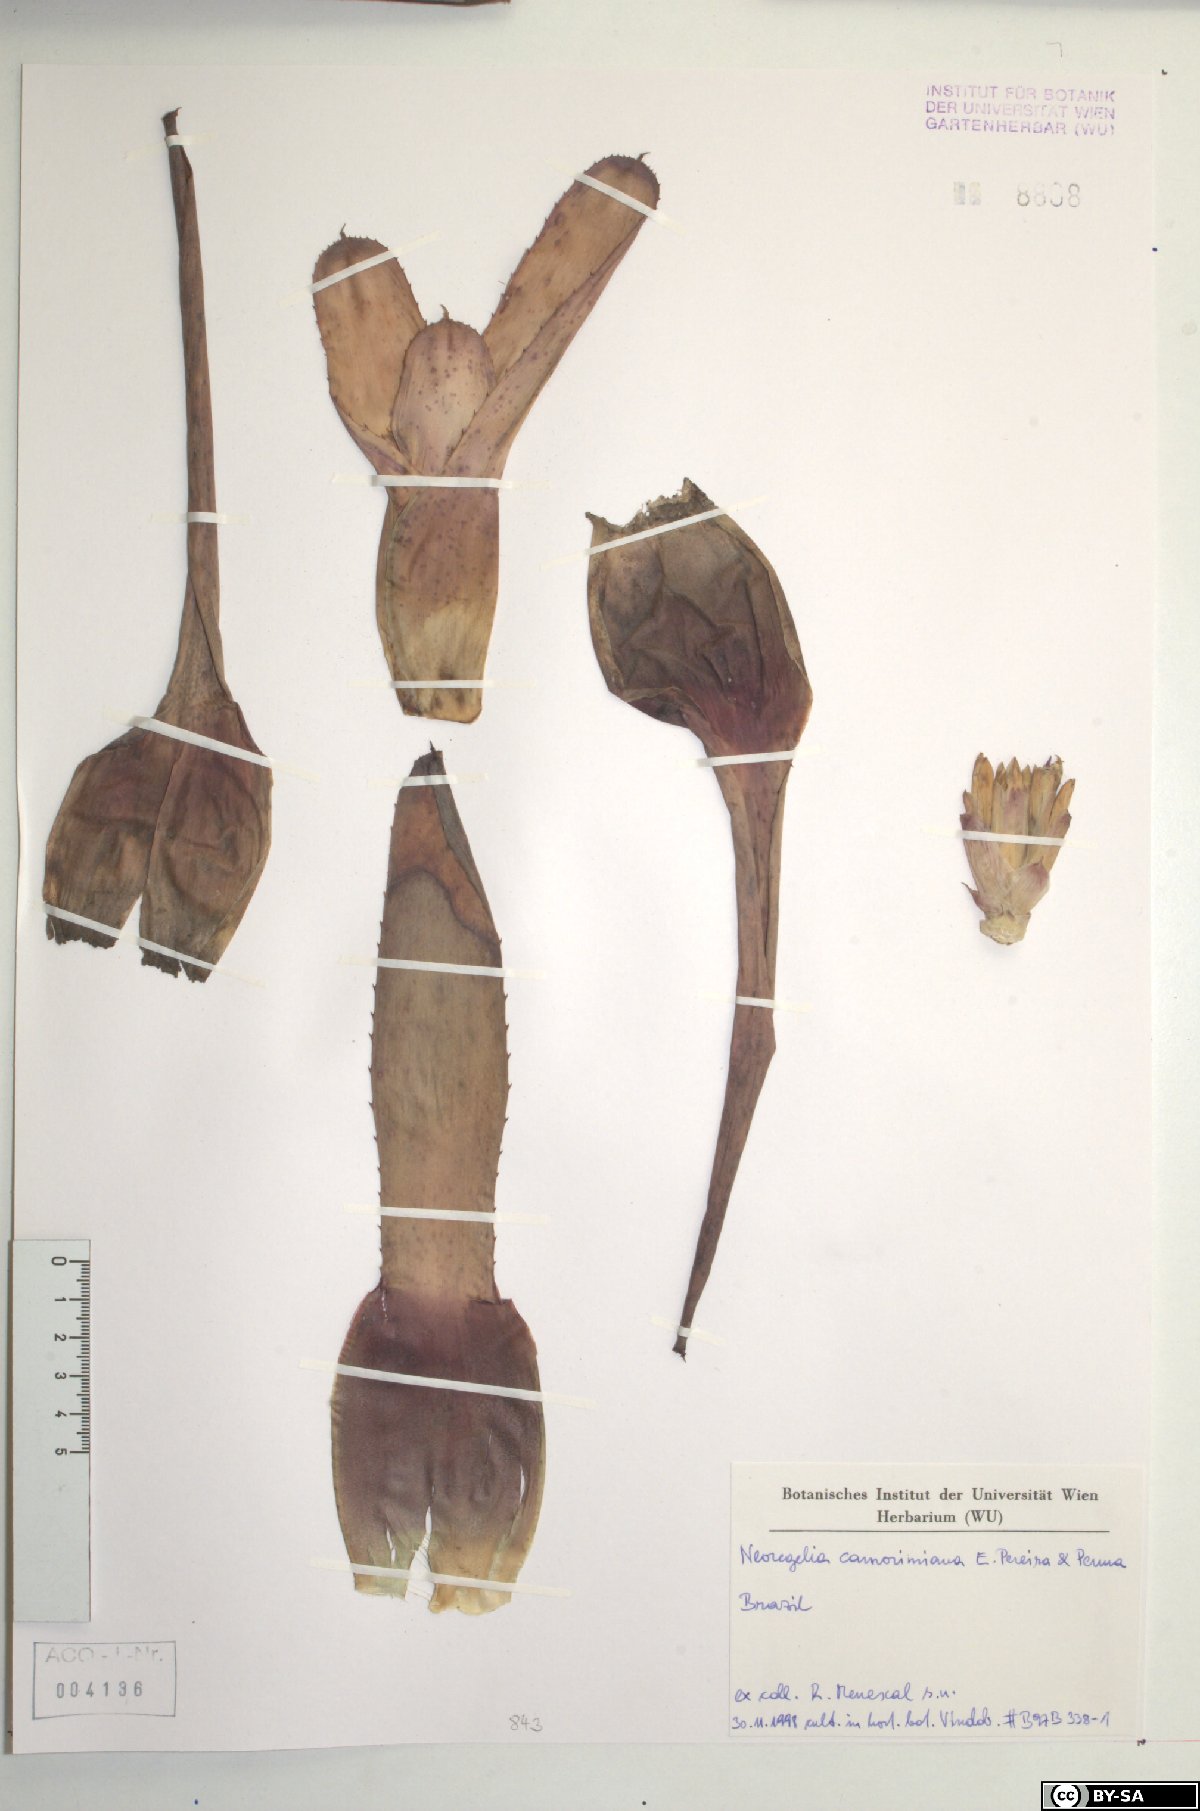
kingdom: Plantae
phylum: Tracheophyta
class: Liliopsida
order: Poales
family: Bromeliaceae
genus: Neoregelia
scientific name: Neoregelia camorimiana
